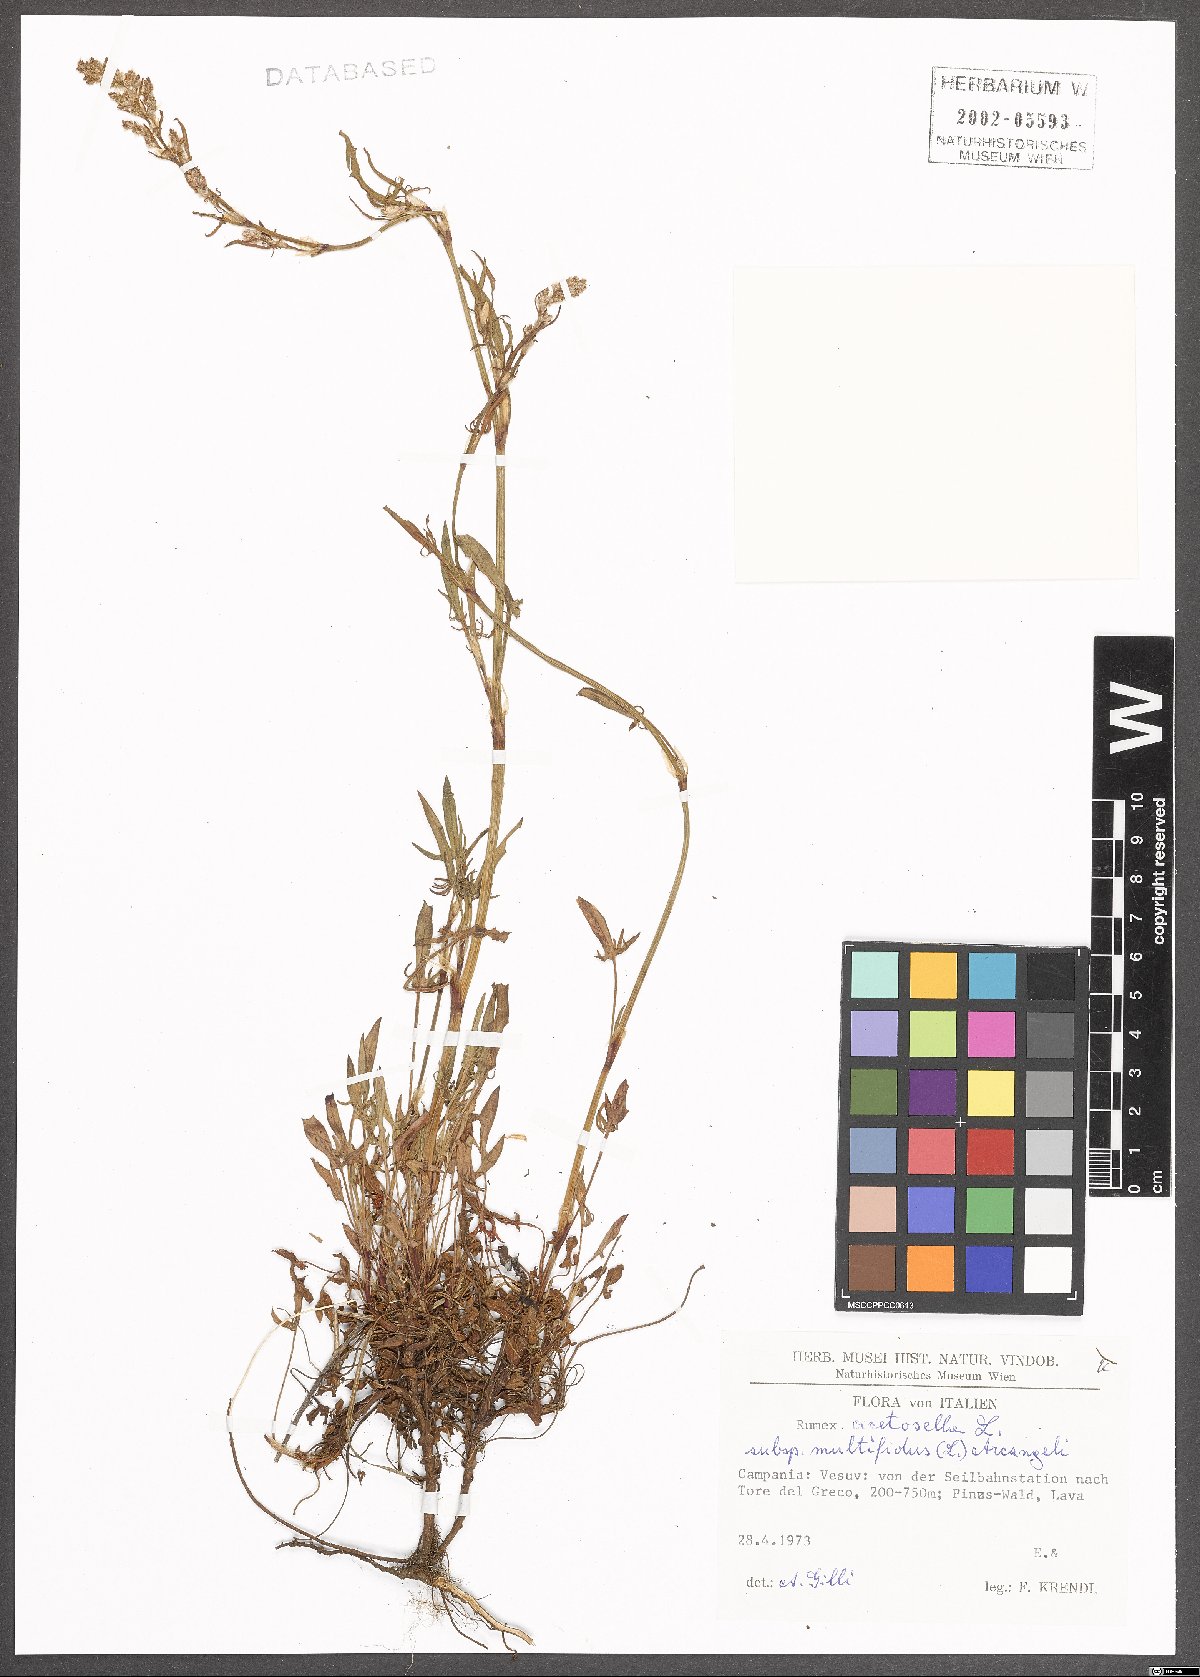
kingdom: Plantae
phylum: Tracheophyta
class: Magnoliopsida
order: Caryophyllales
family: Polygonaceae
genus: Rumex
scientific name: Rumex acetosella
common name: Common sheep sorrel
